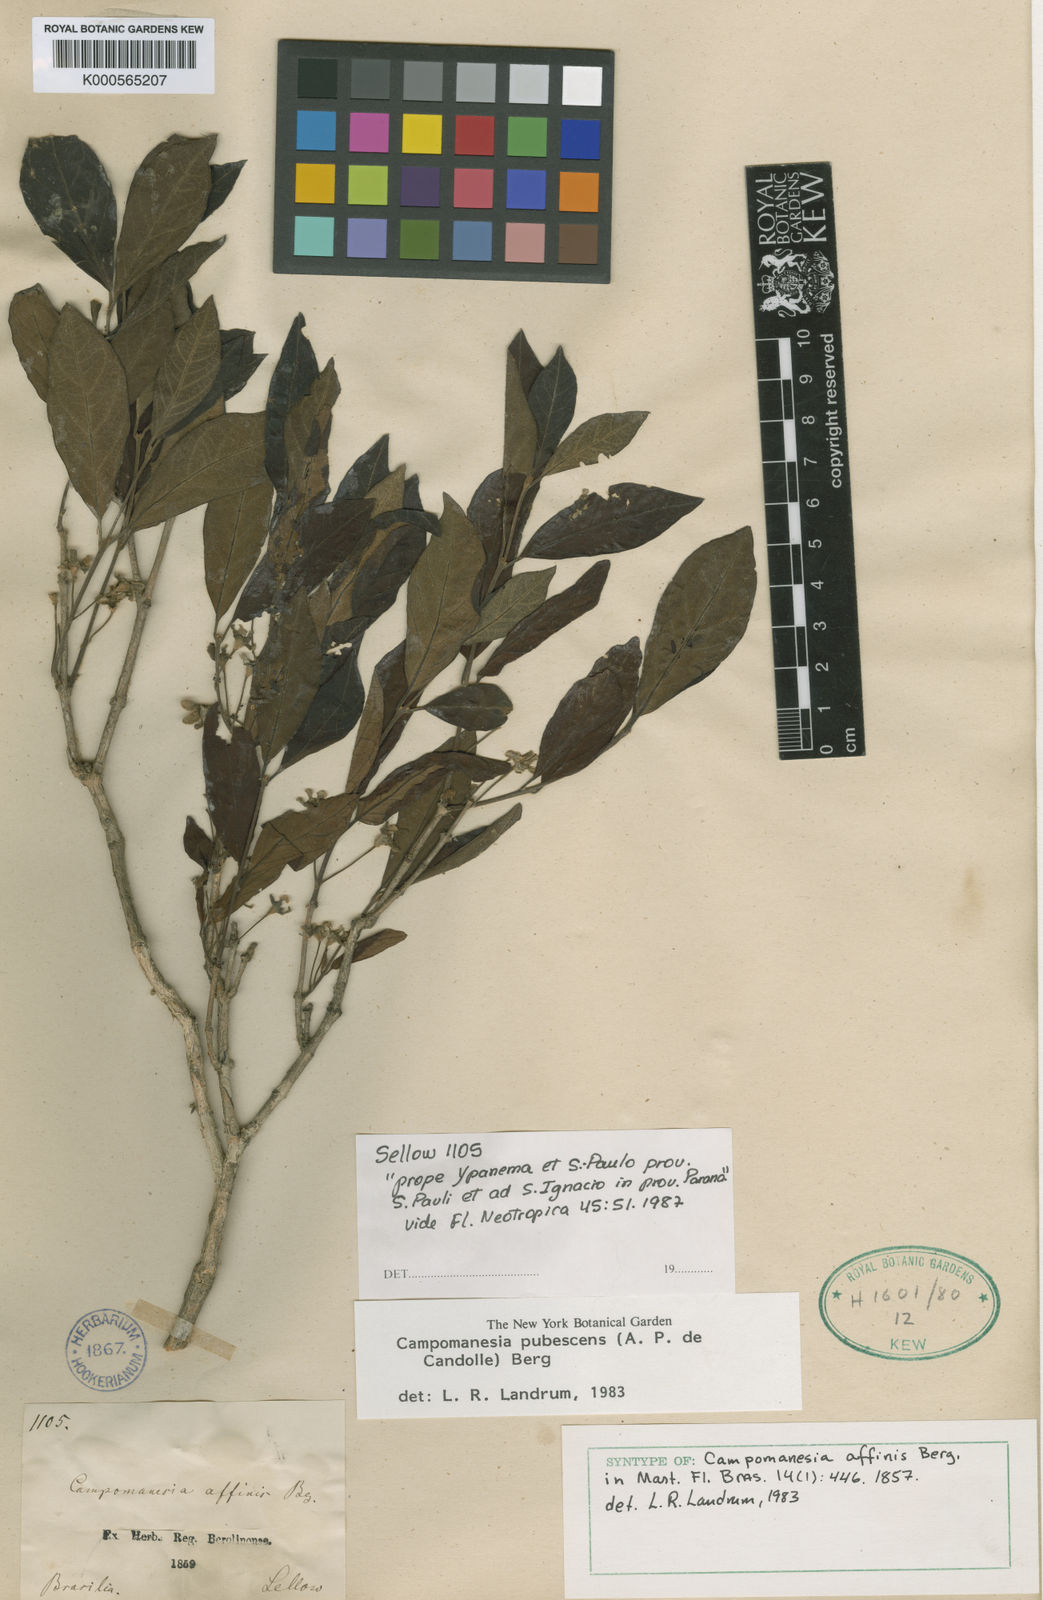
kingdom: Plantae
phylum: Tracheophyta
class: Magnoliopsida
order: Myrtales
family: Myrtaceae
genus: Campomanesia
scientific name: Campomanesia pubescens
